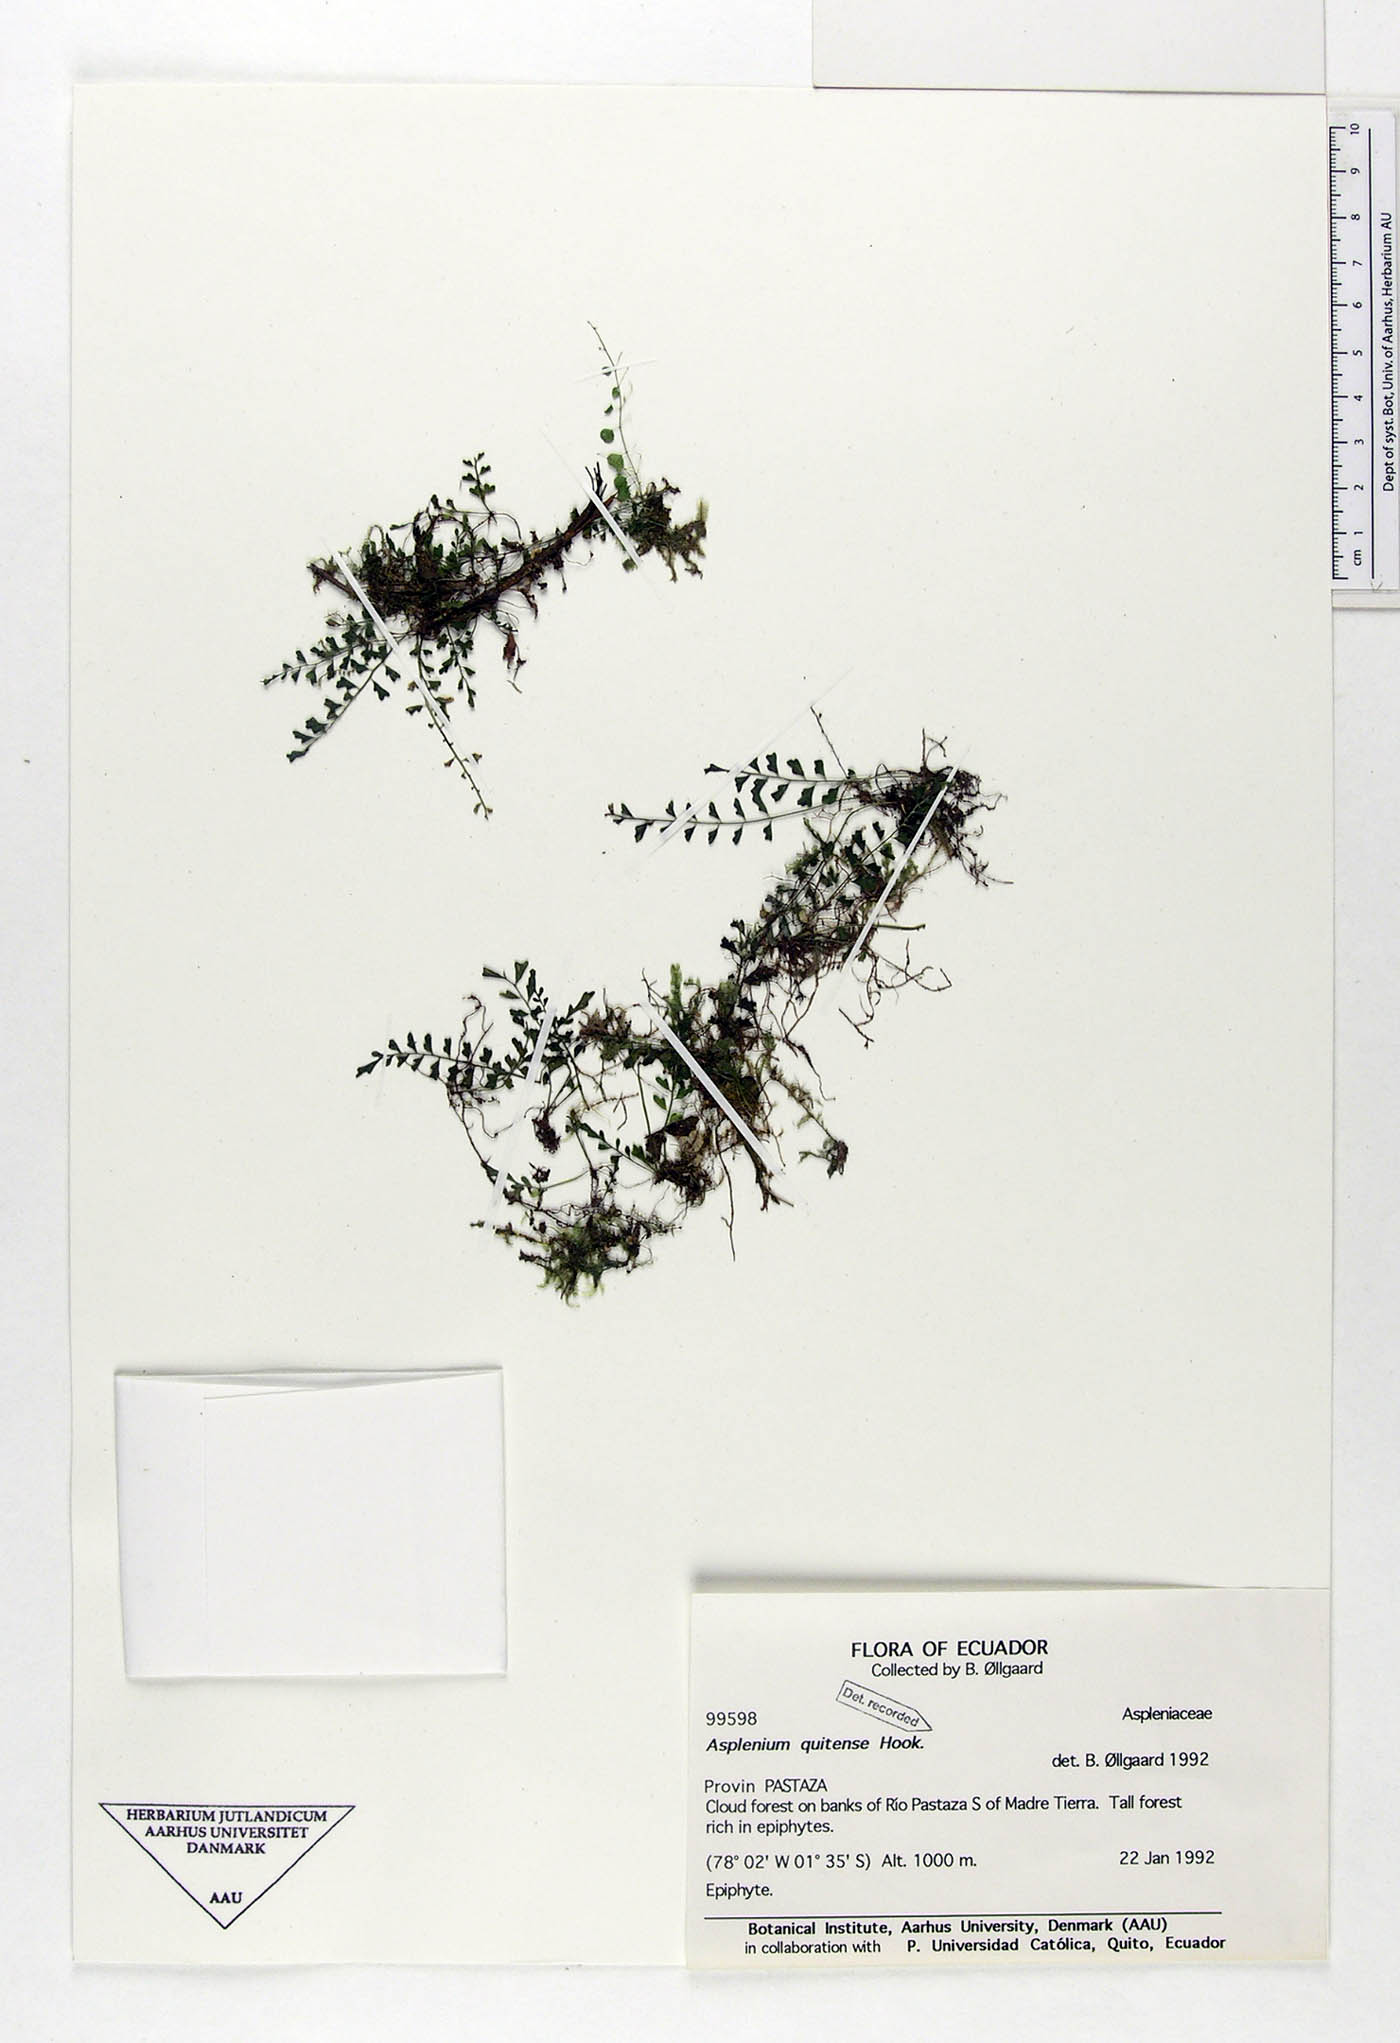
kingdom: Plantae
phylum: Tracheophyta
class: Polypodiopsida
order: Polypodiales
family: Aspleniaceae
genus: Asplenium
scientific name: Asplenium quitense
